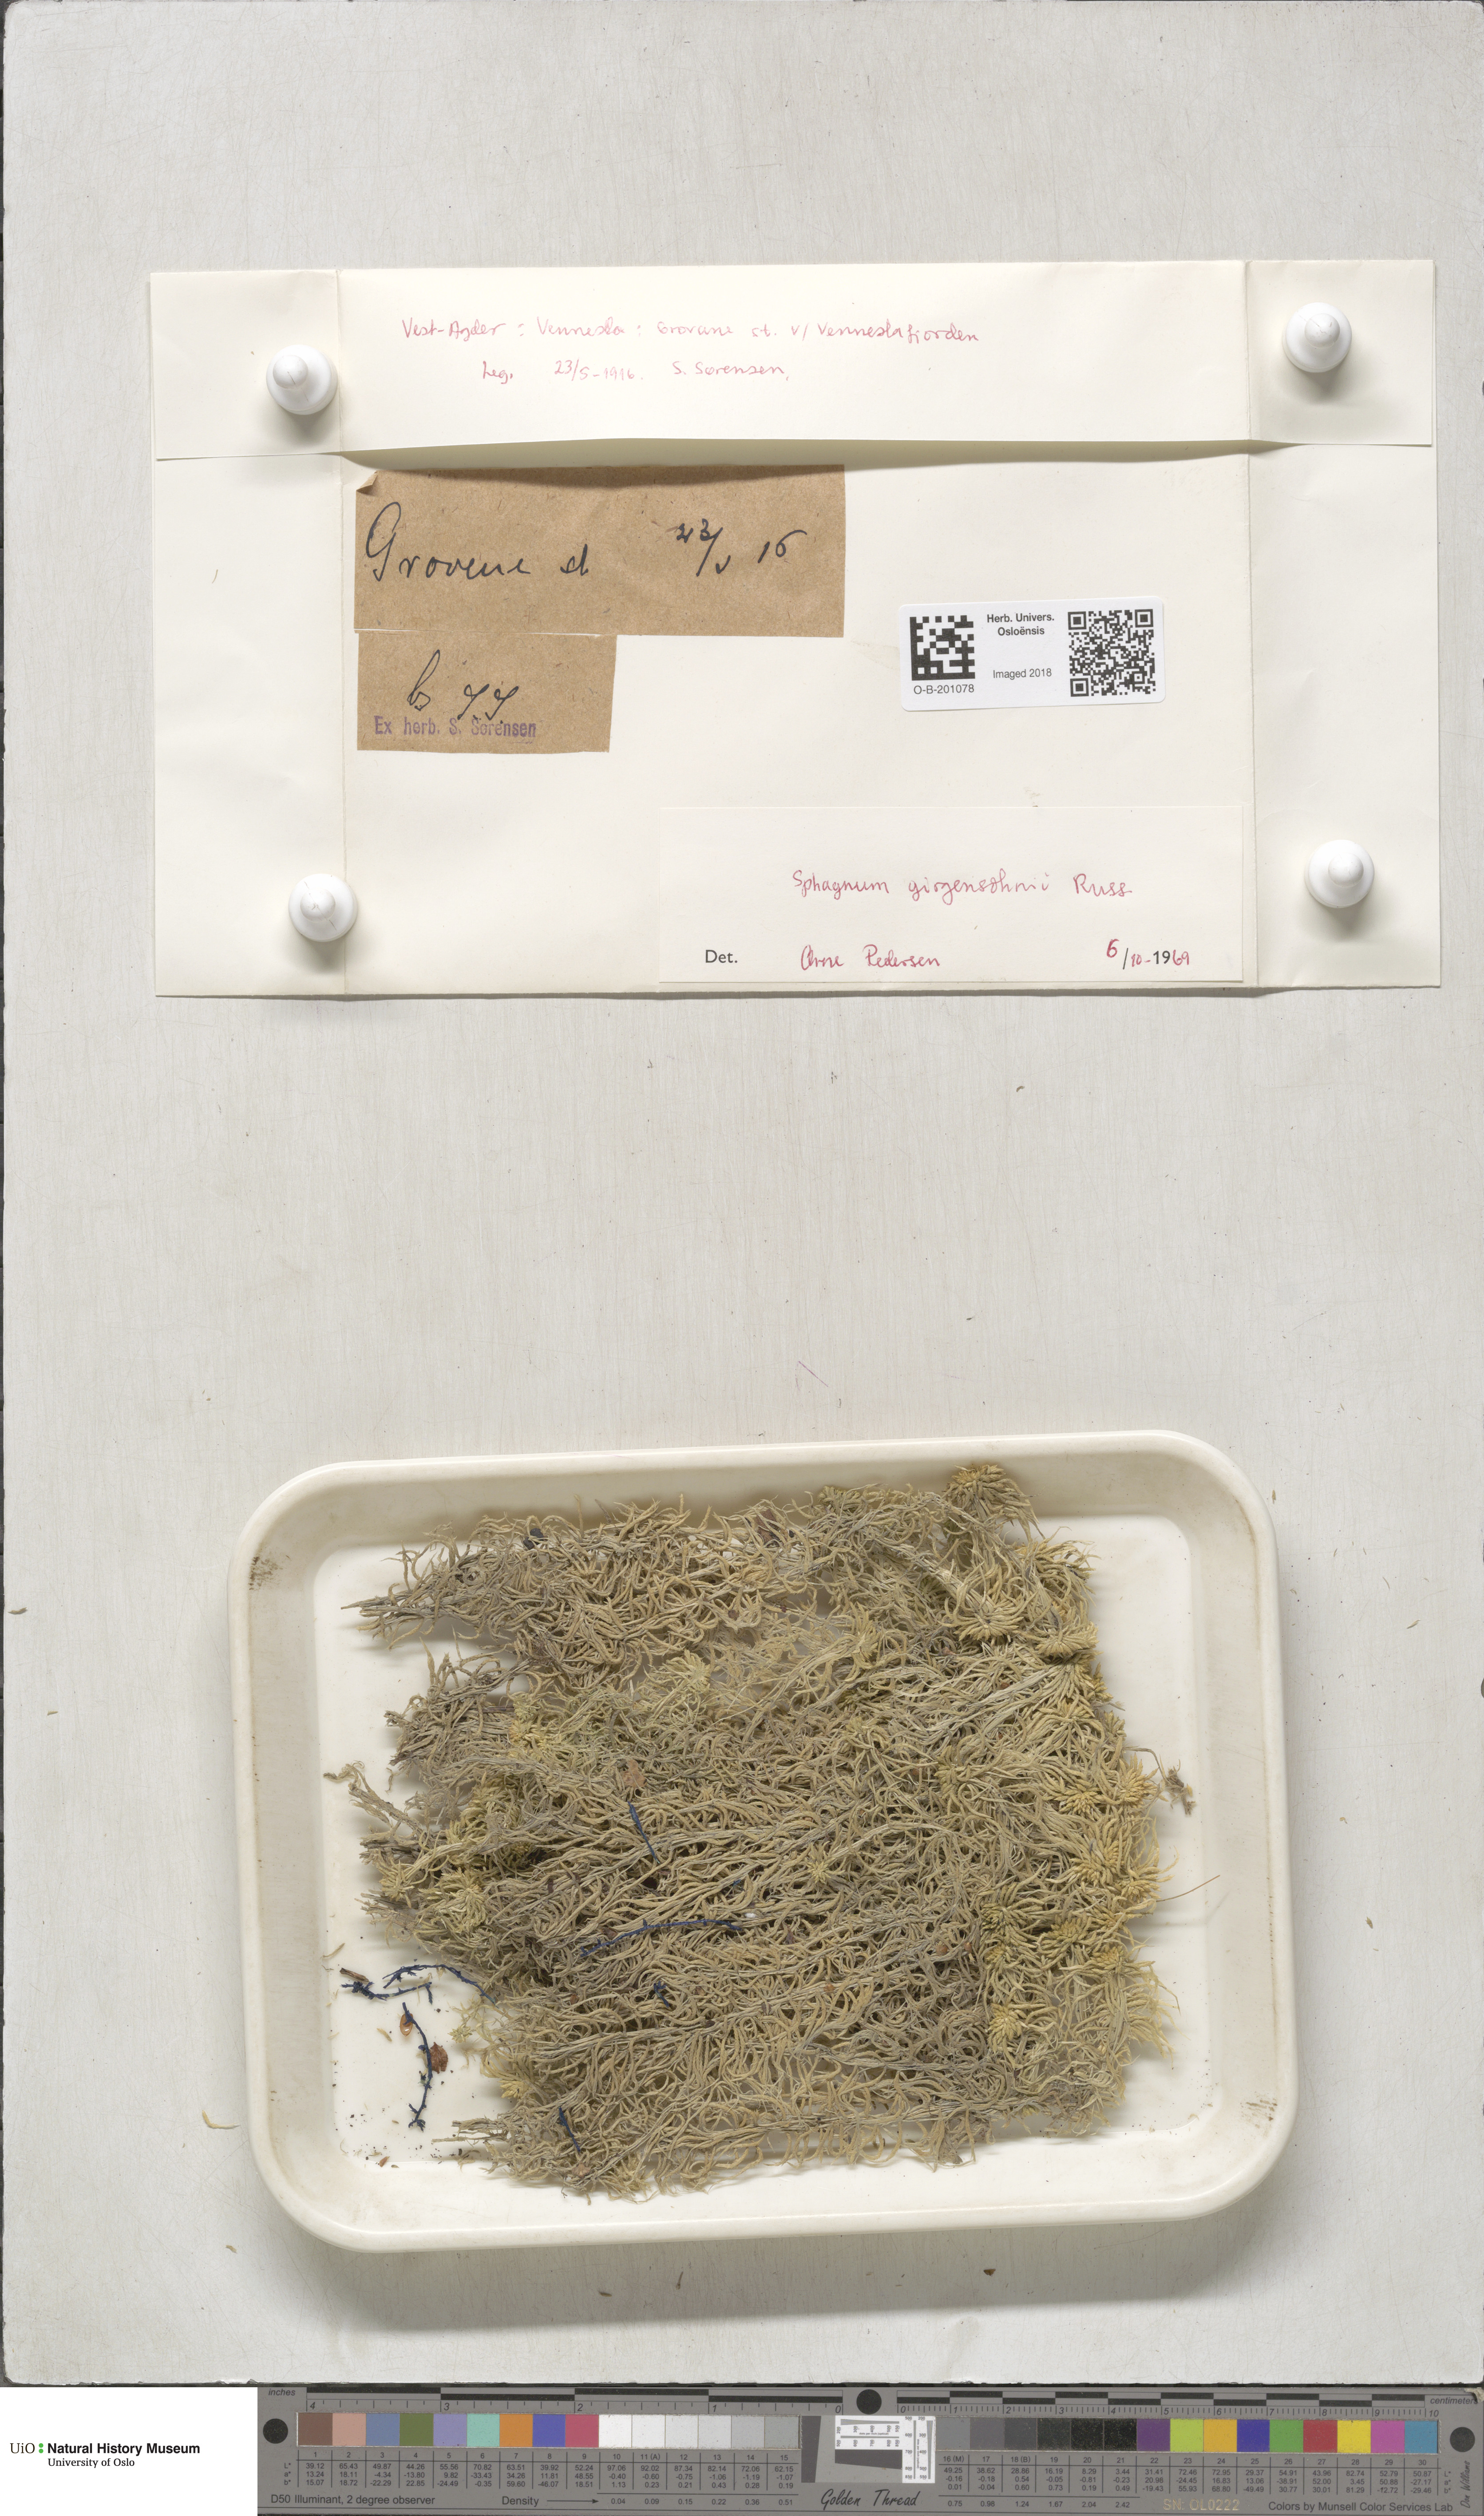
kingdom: Plantae
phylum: Bryophyta
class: Sphagnopsida
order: Sphagnales
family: Sphagnaceae
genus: Sphagnum
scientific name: Sphagnum girgensohnii
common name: Girgensohn's peat moss
